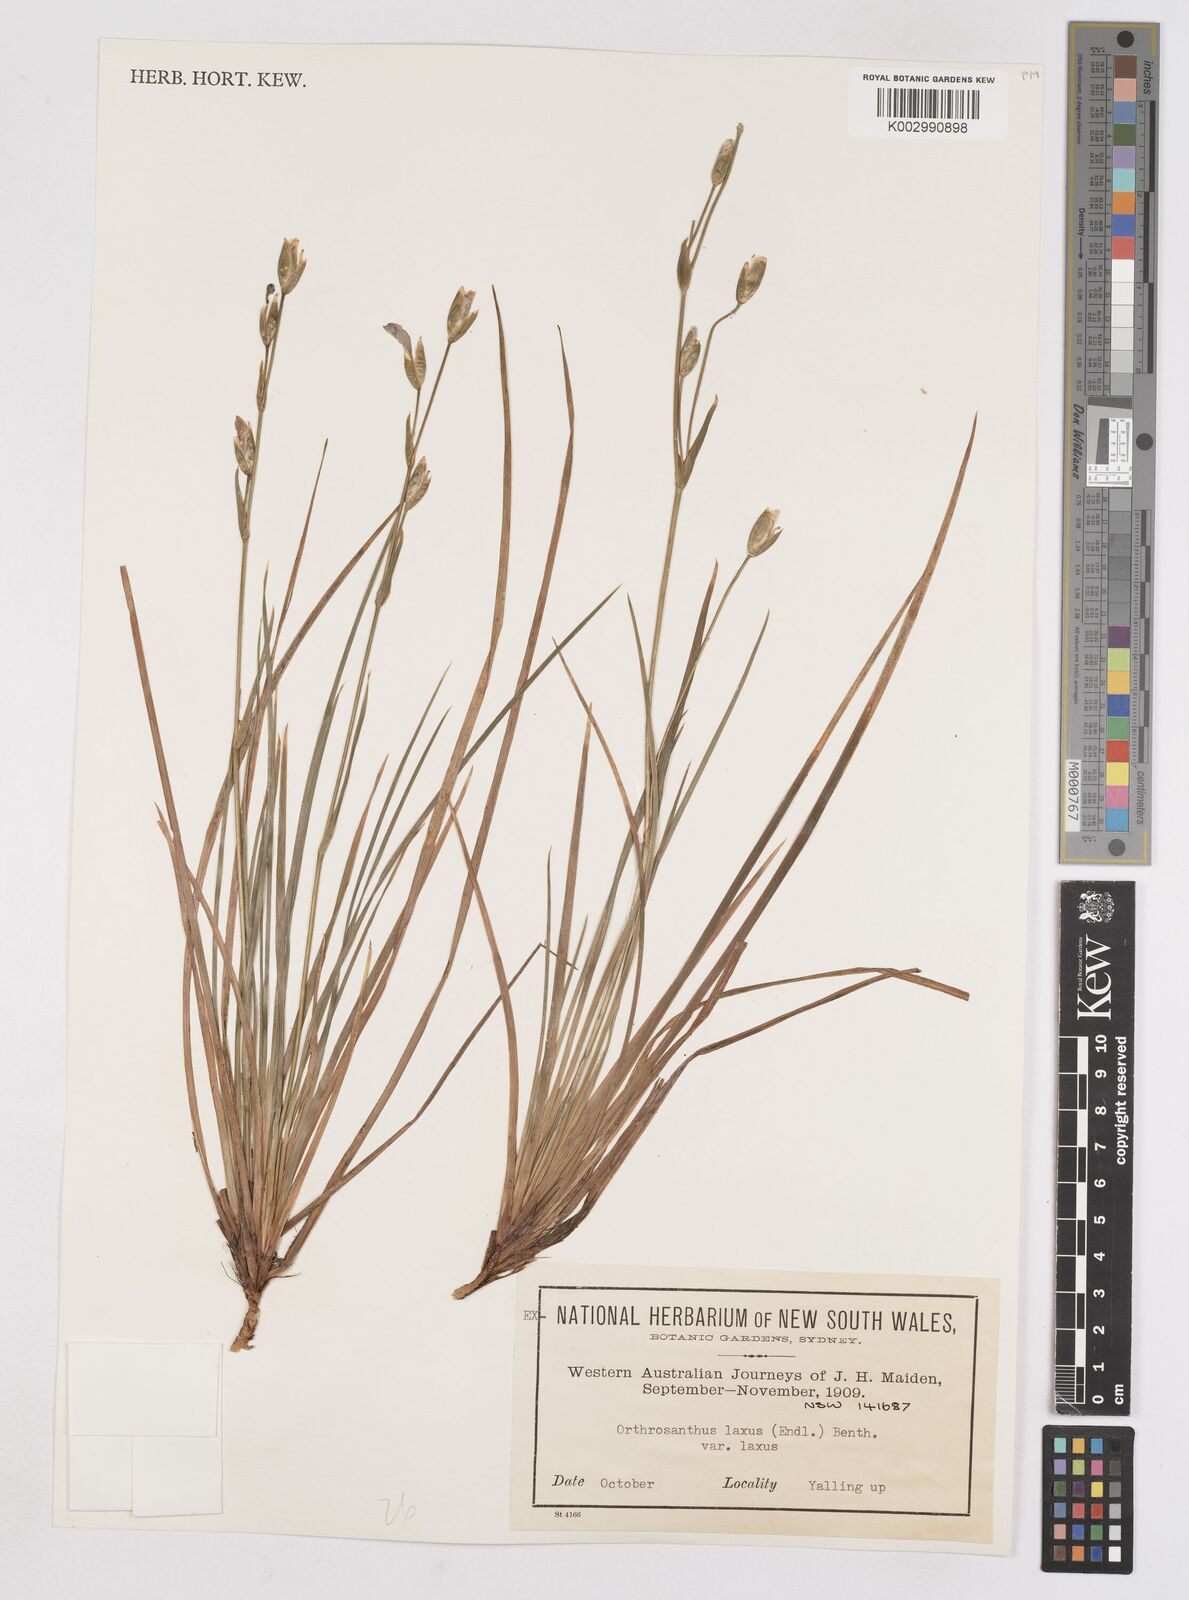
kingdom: Plantae
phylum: Tracheophyta
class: Liliopsida
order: Asparagales
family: Iridaceae
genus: Orthrosanthus
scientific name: Orthrosanthus laxus
